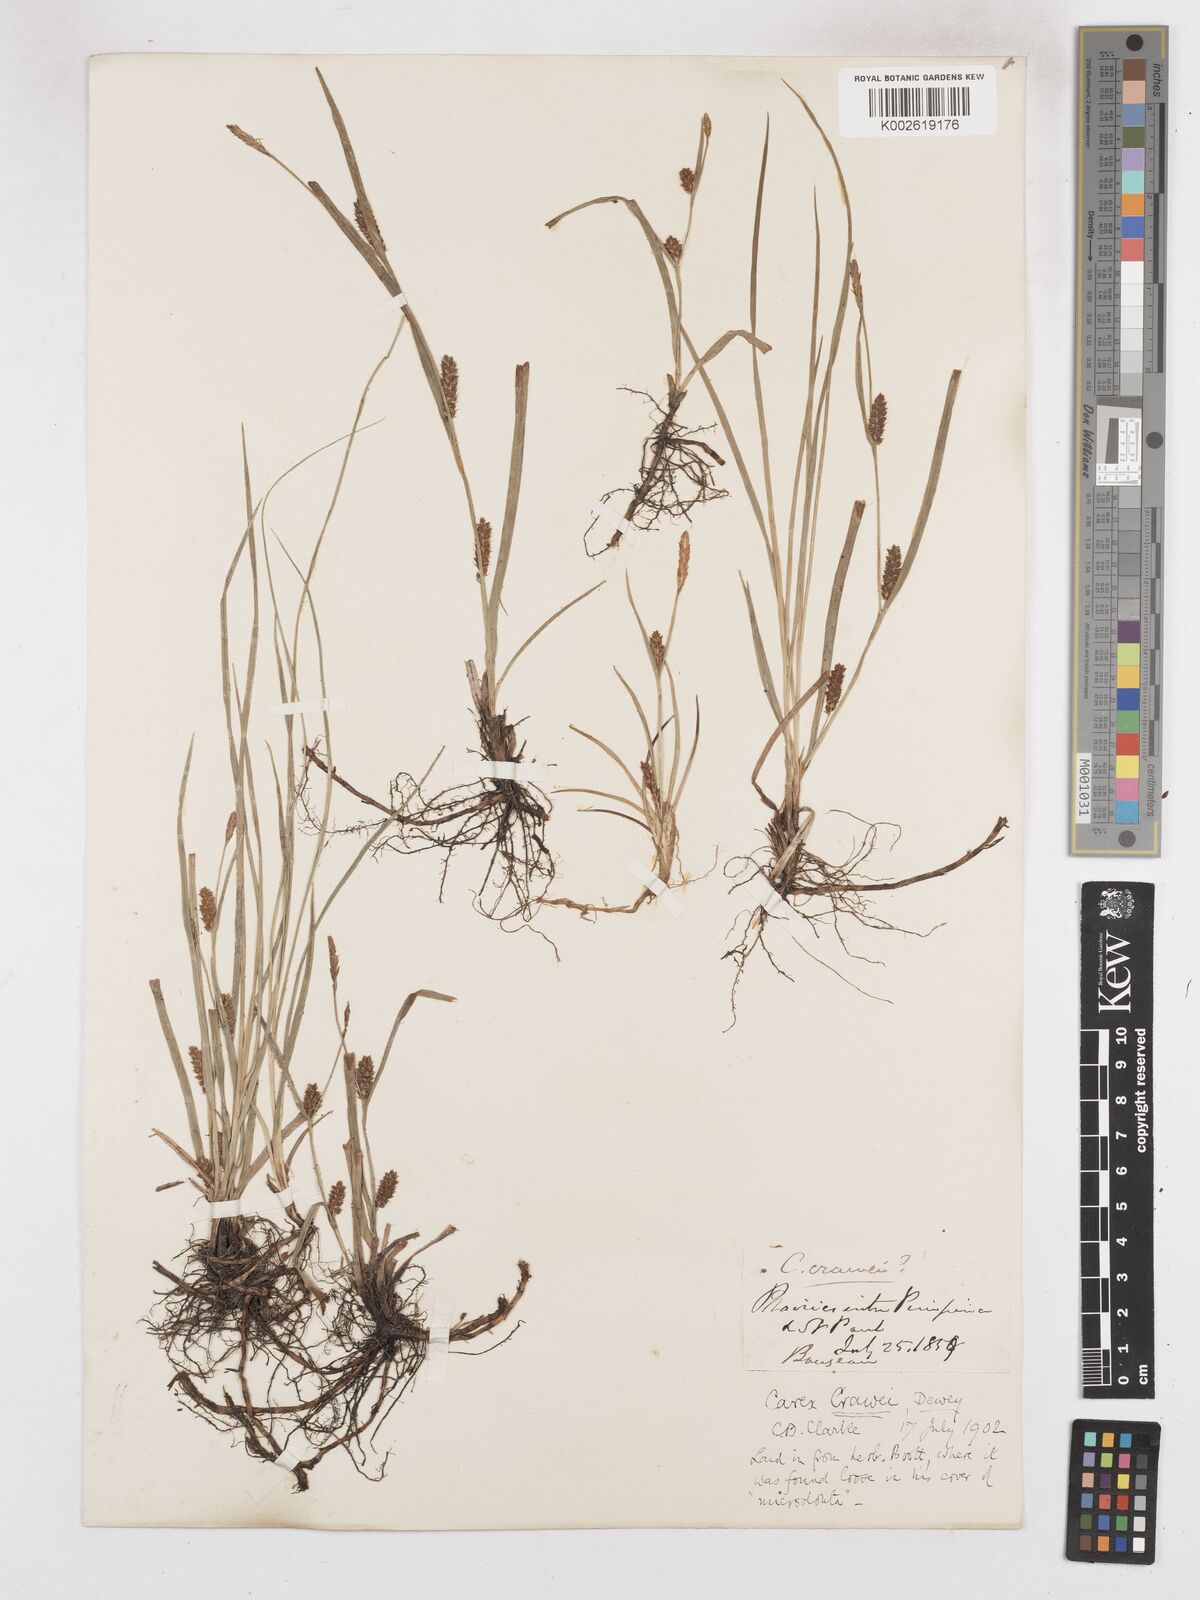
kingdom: Plantae
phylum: Tracheophyta
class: Liliopsida
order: Poales
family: Cyperaceae
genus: Carex
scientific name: Carex crawei
